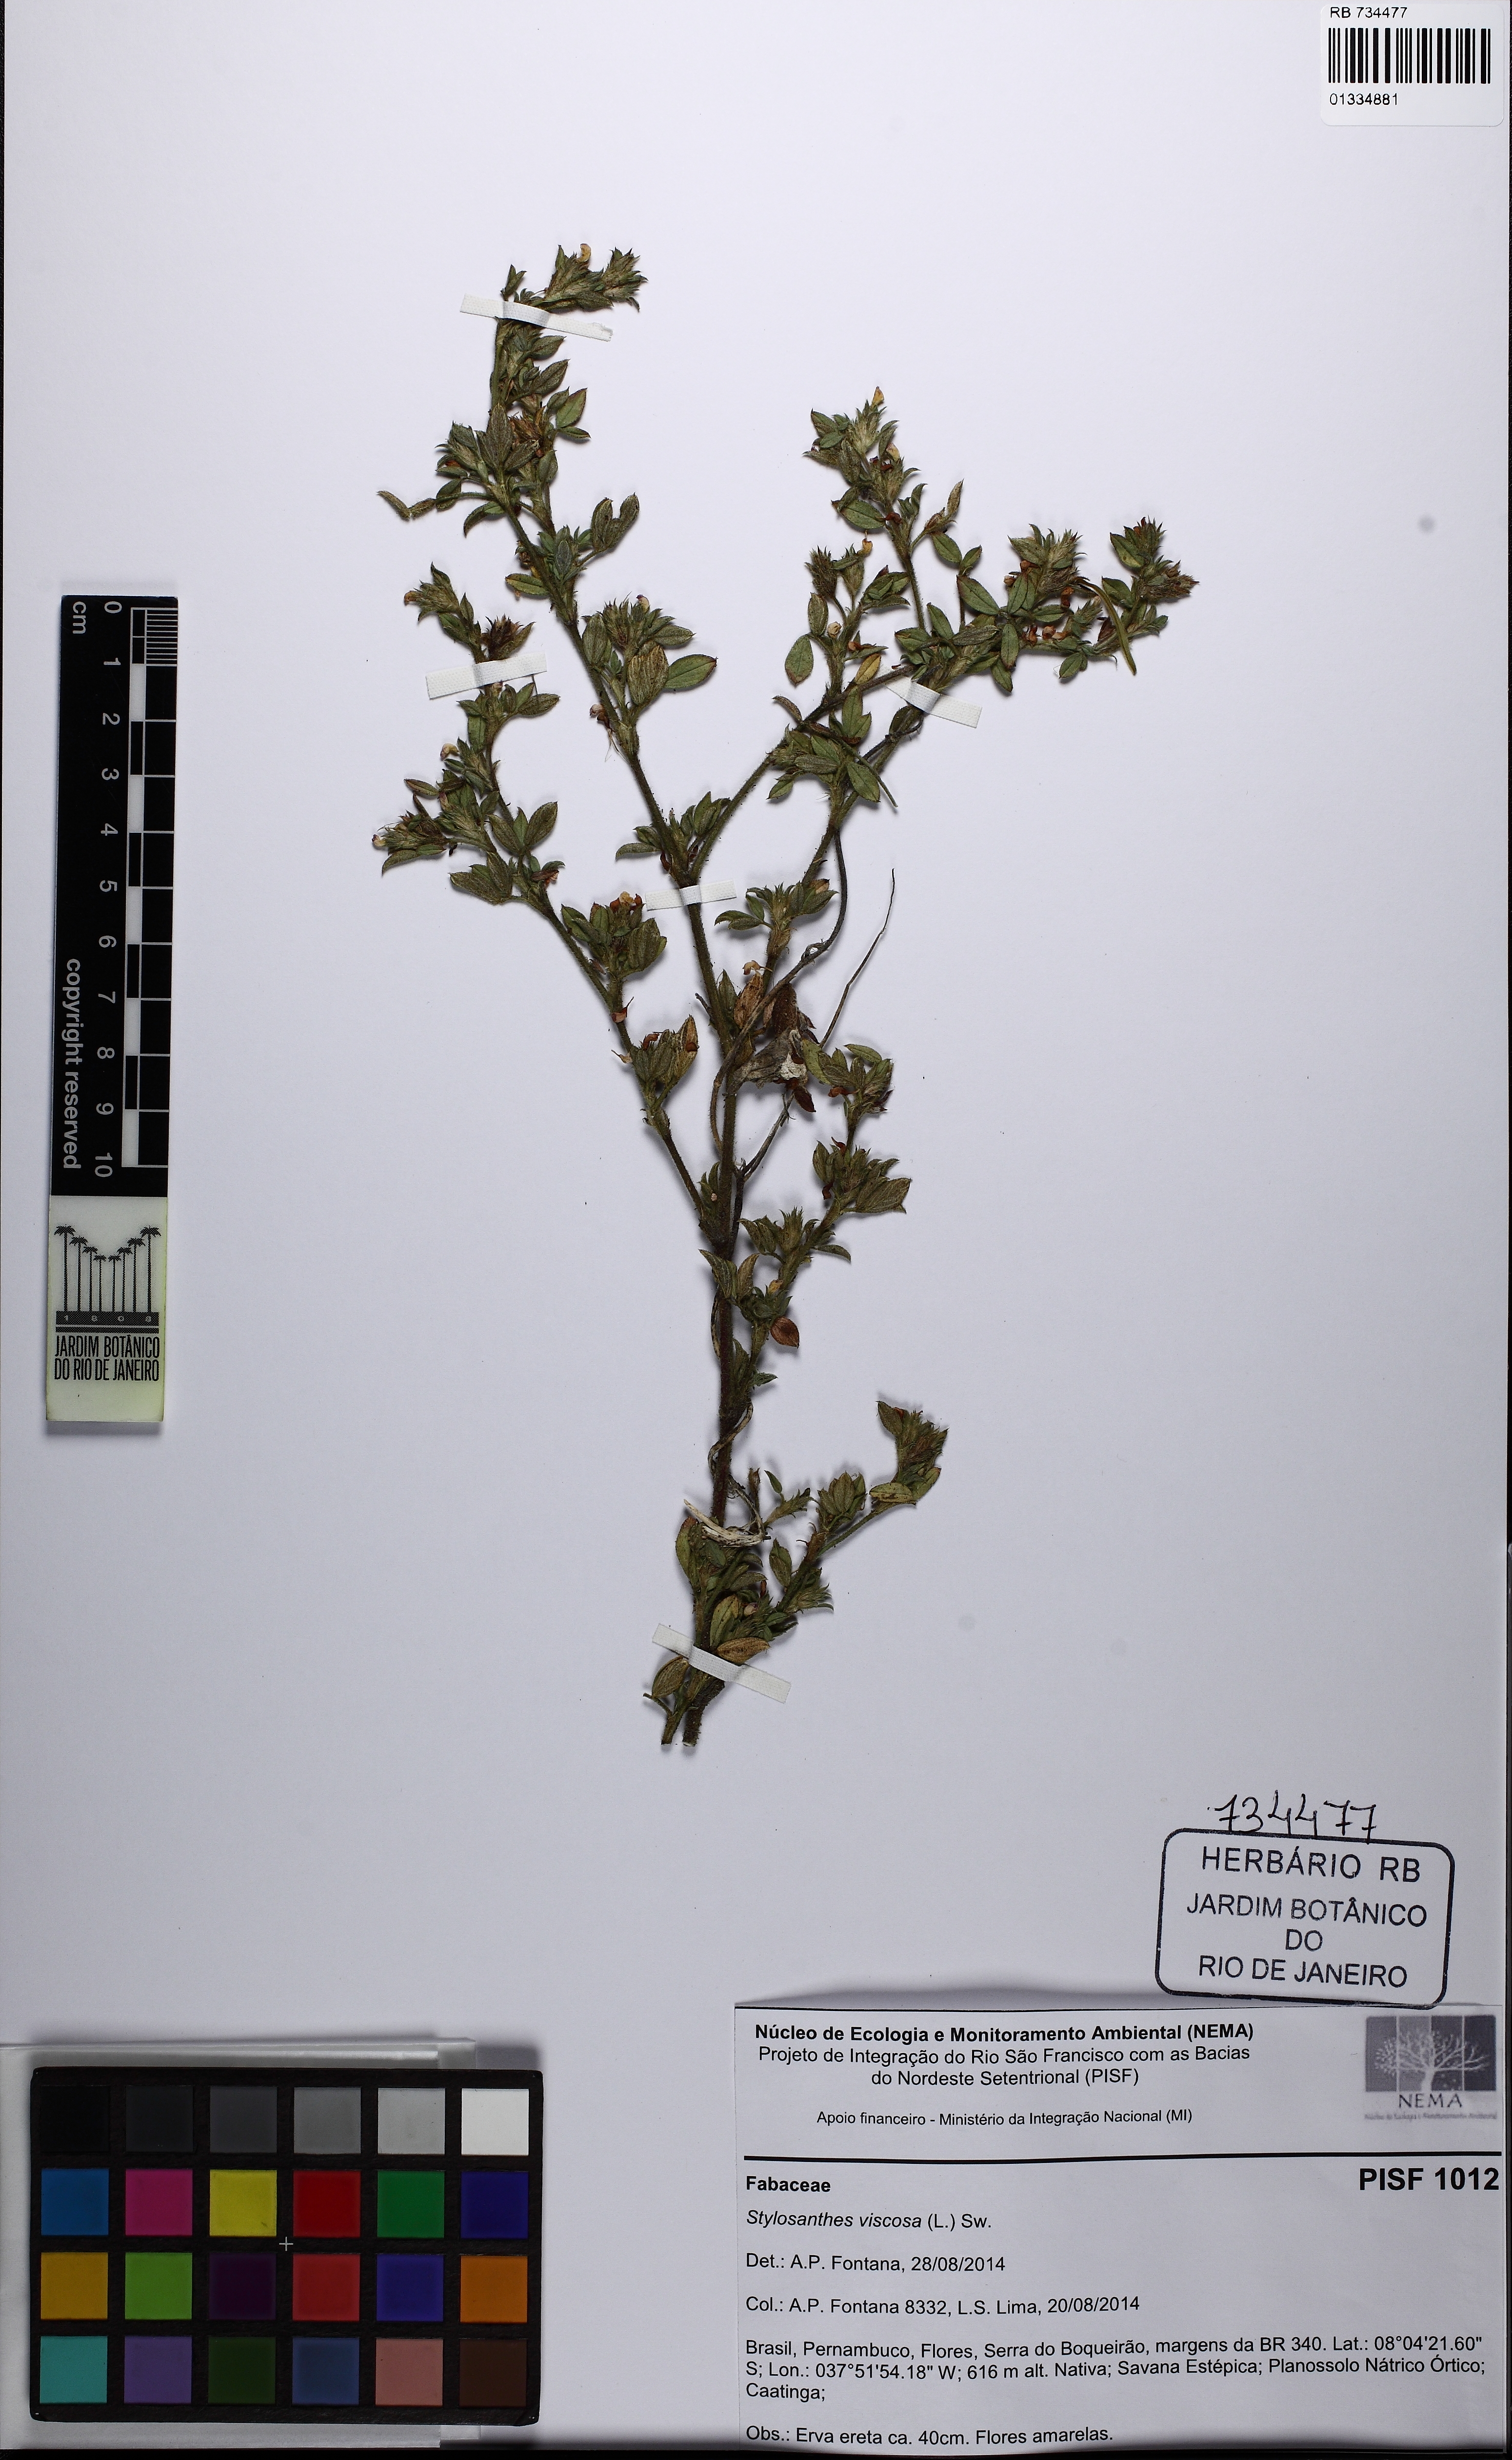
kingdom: Plantae
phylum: Tracheophyta
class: Magnoliopsida
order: Fabales
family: Fabaceae
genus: Stylosanthes
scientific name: Stylosanthes viscosa
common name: Viscid pencil-flower
